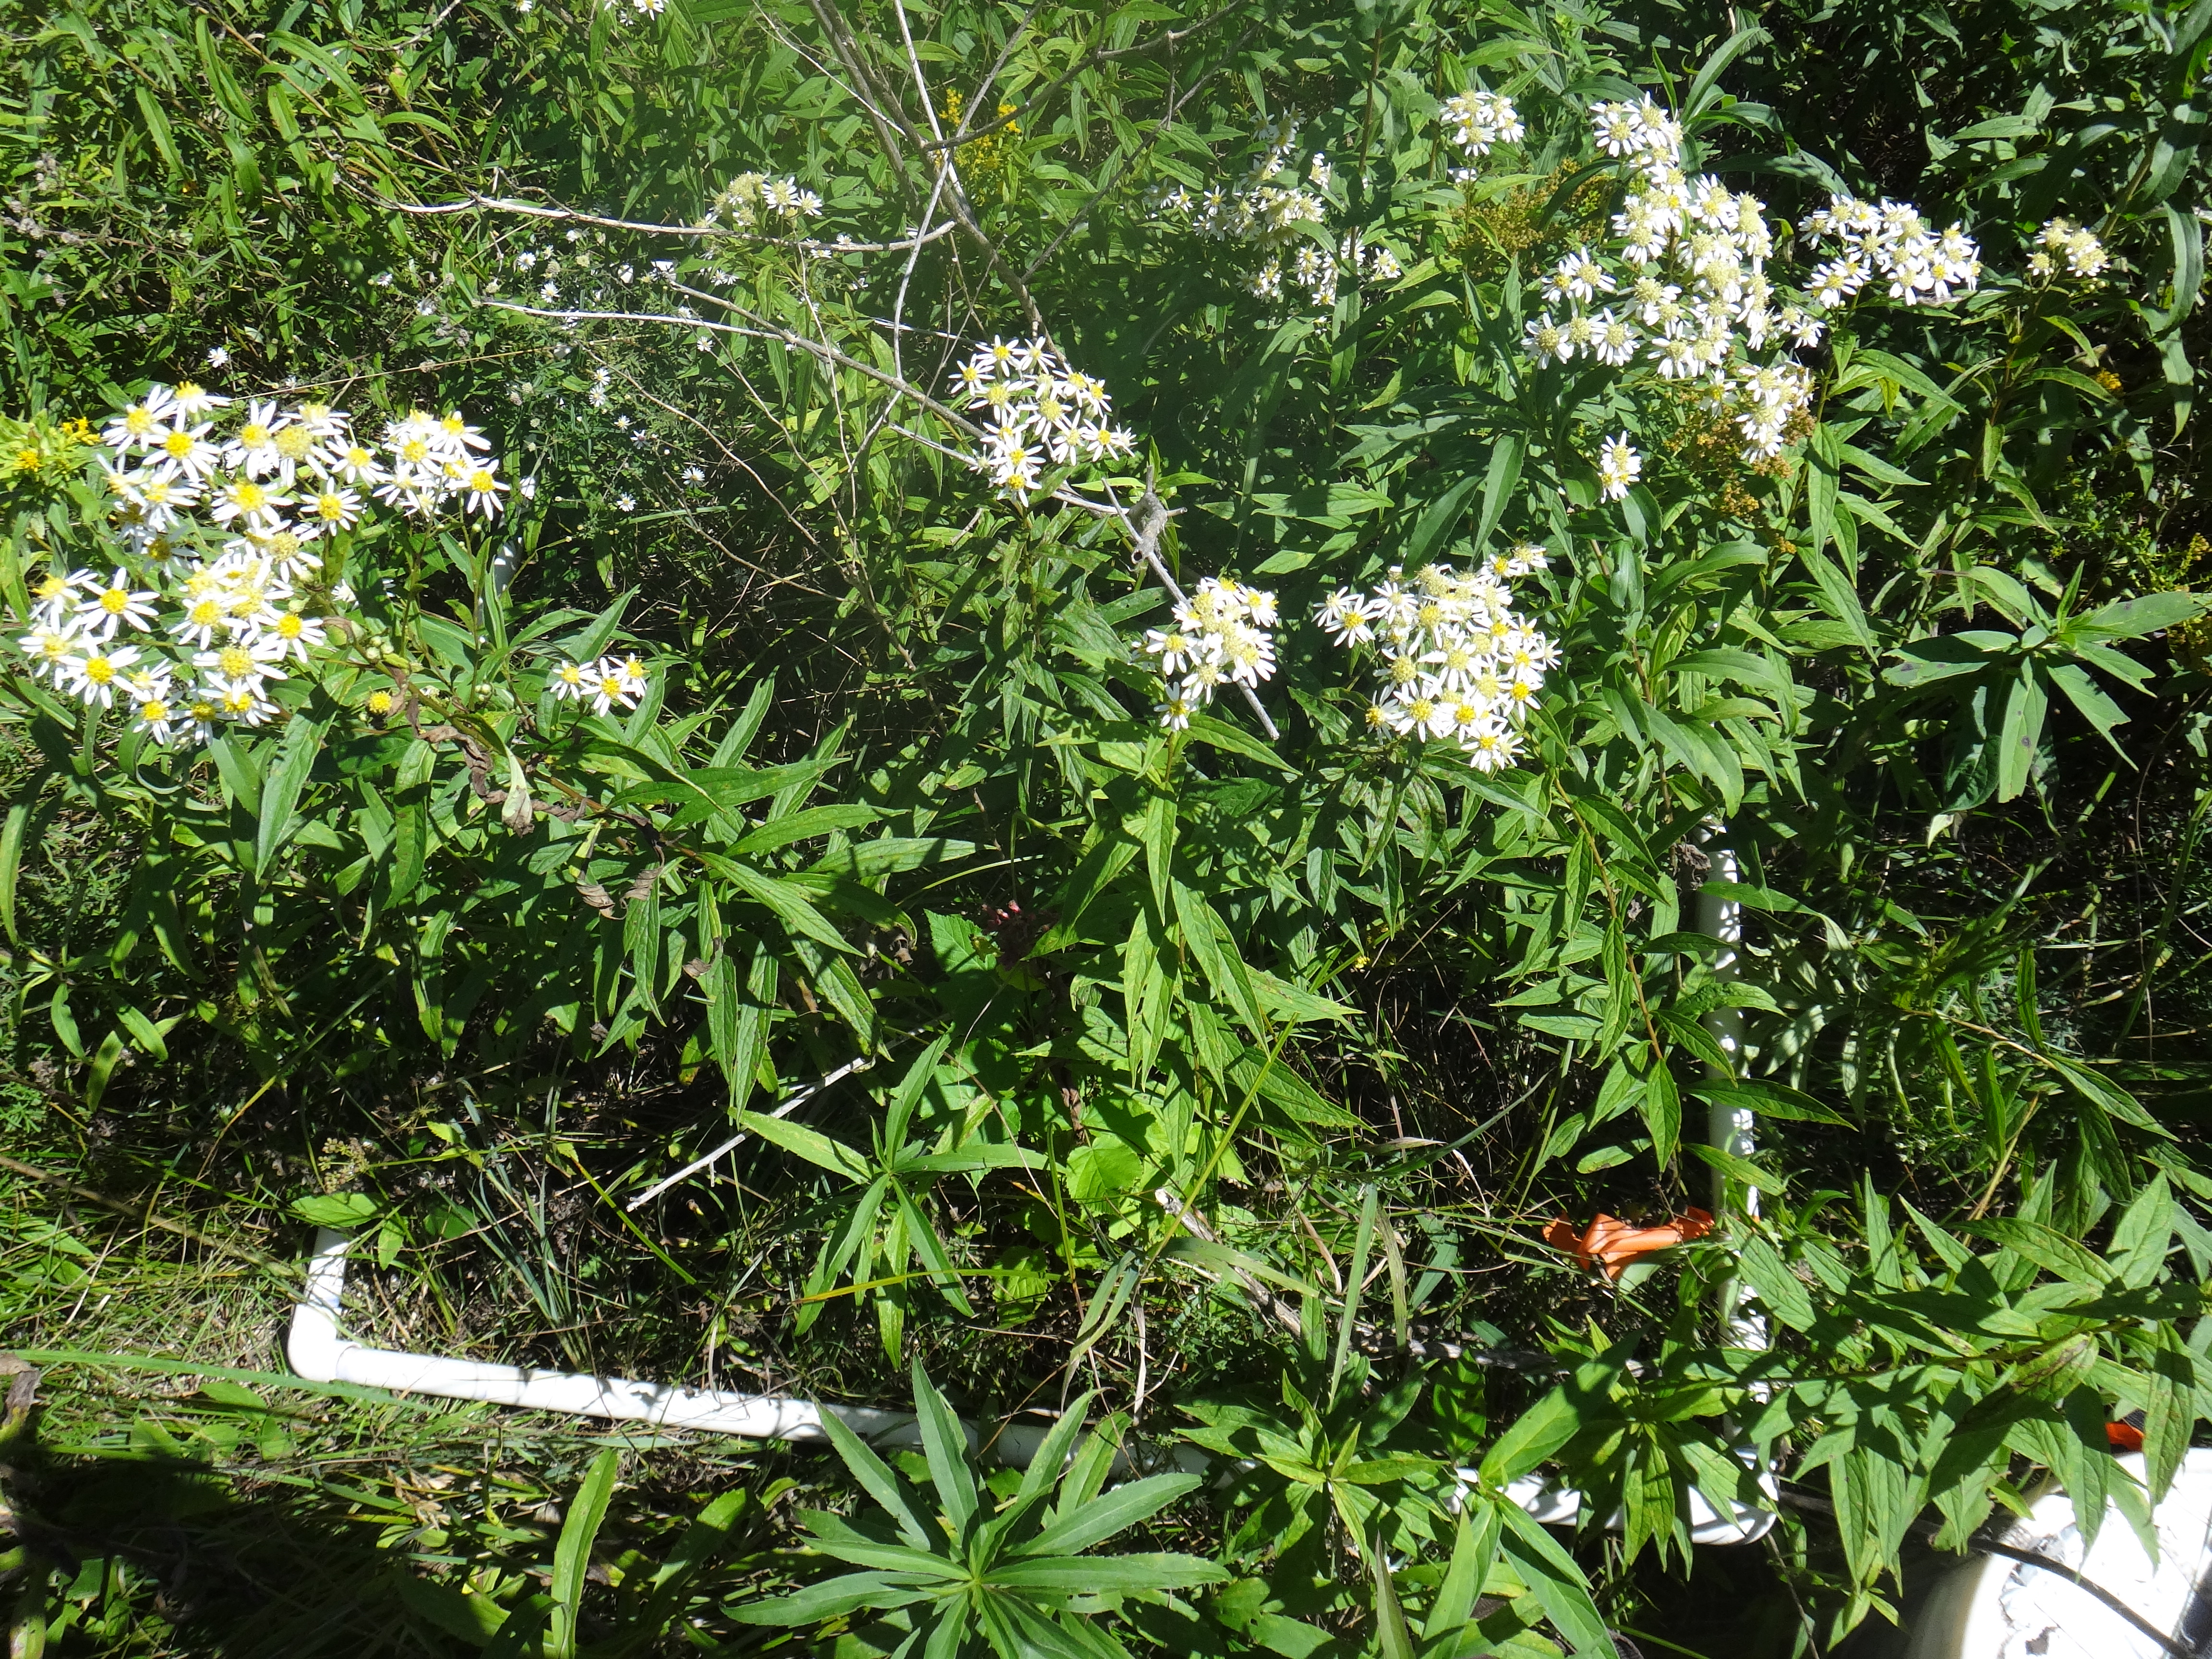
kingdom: Plantae
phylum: Tracheophyta
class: Magnoliopsida
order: Asterales
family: Asteraceae
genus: Doellingeria
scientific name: Doellingeria umbellata
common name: Flat-top white aster
